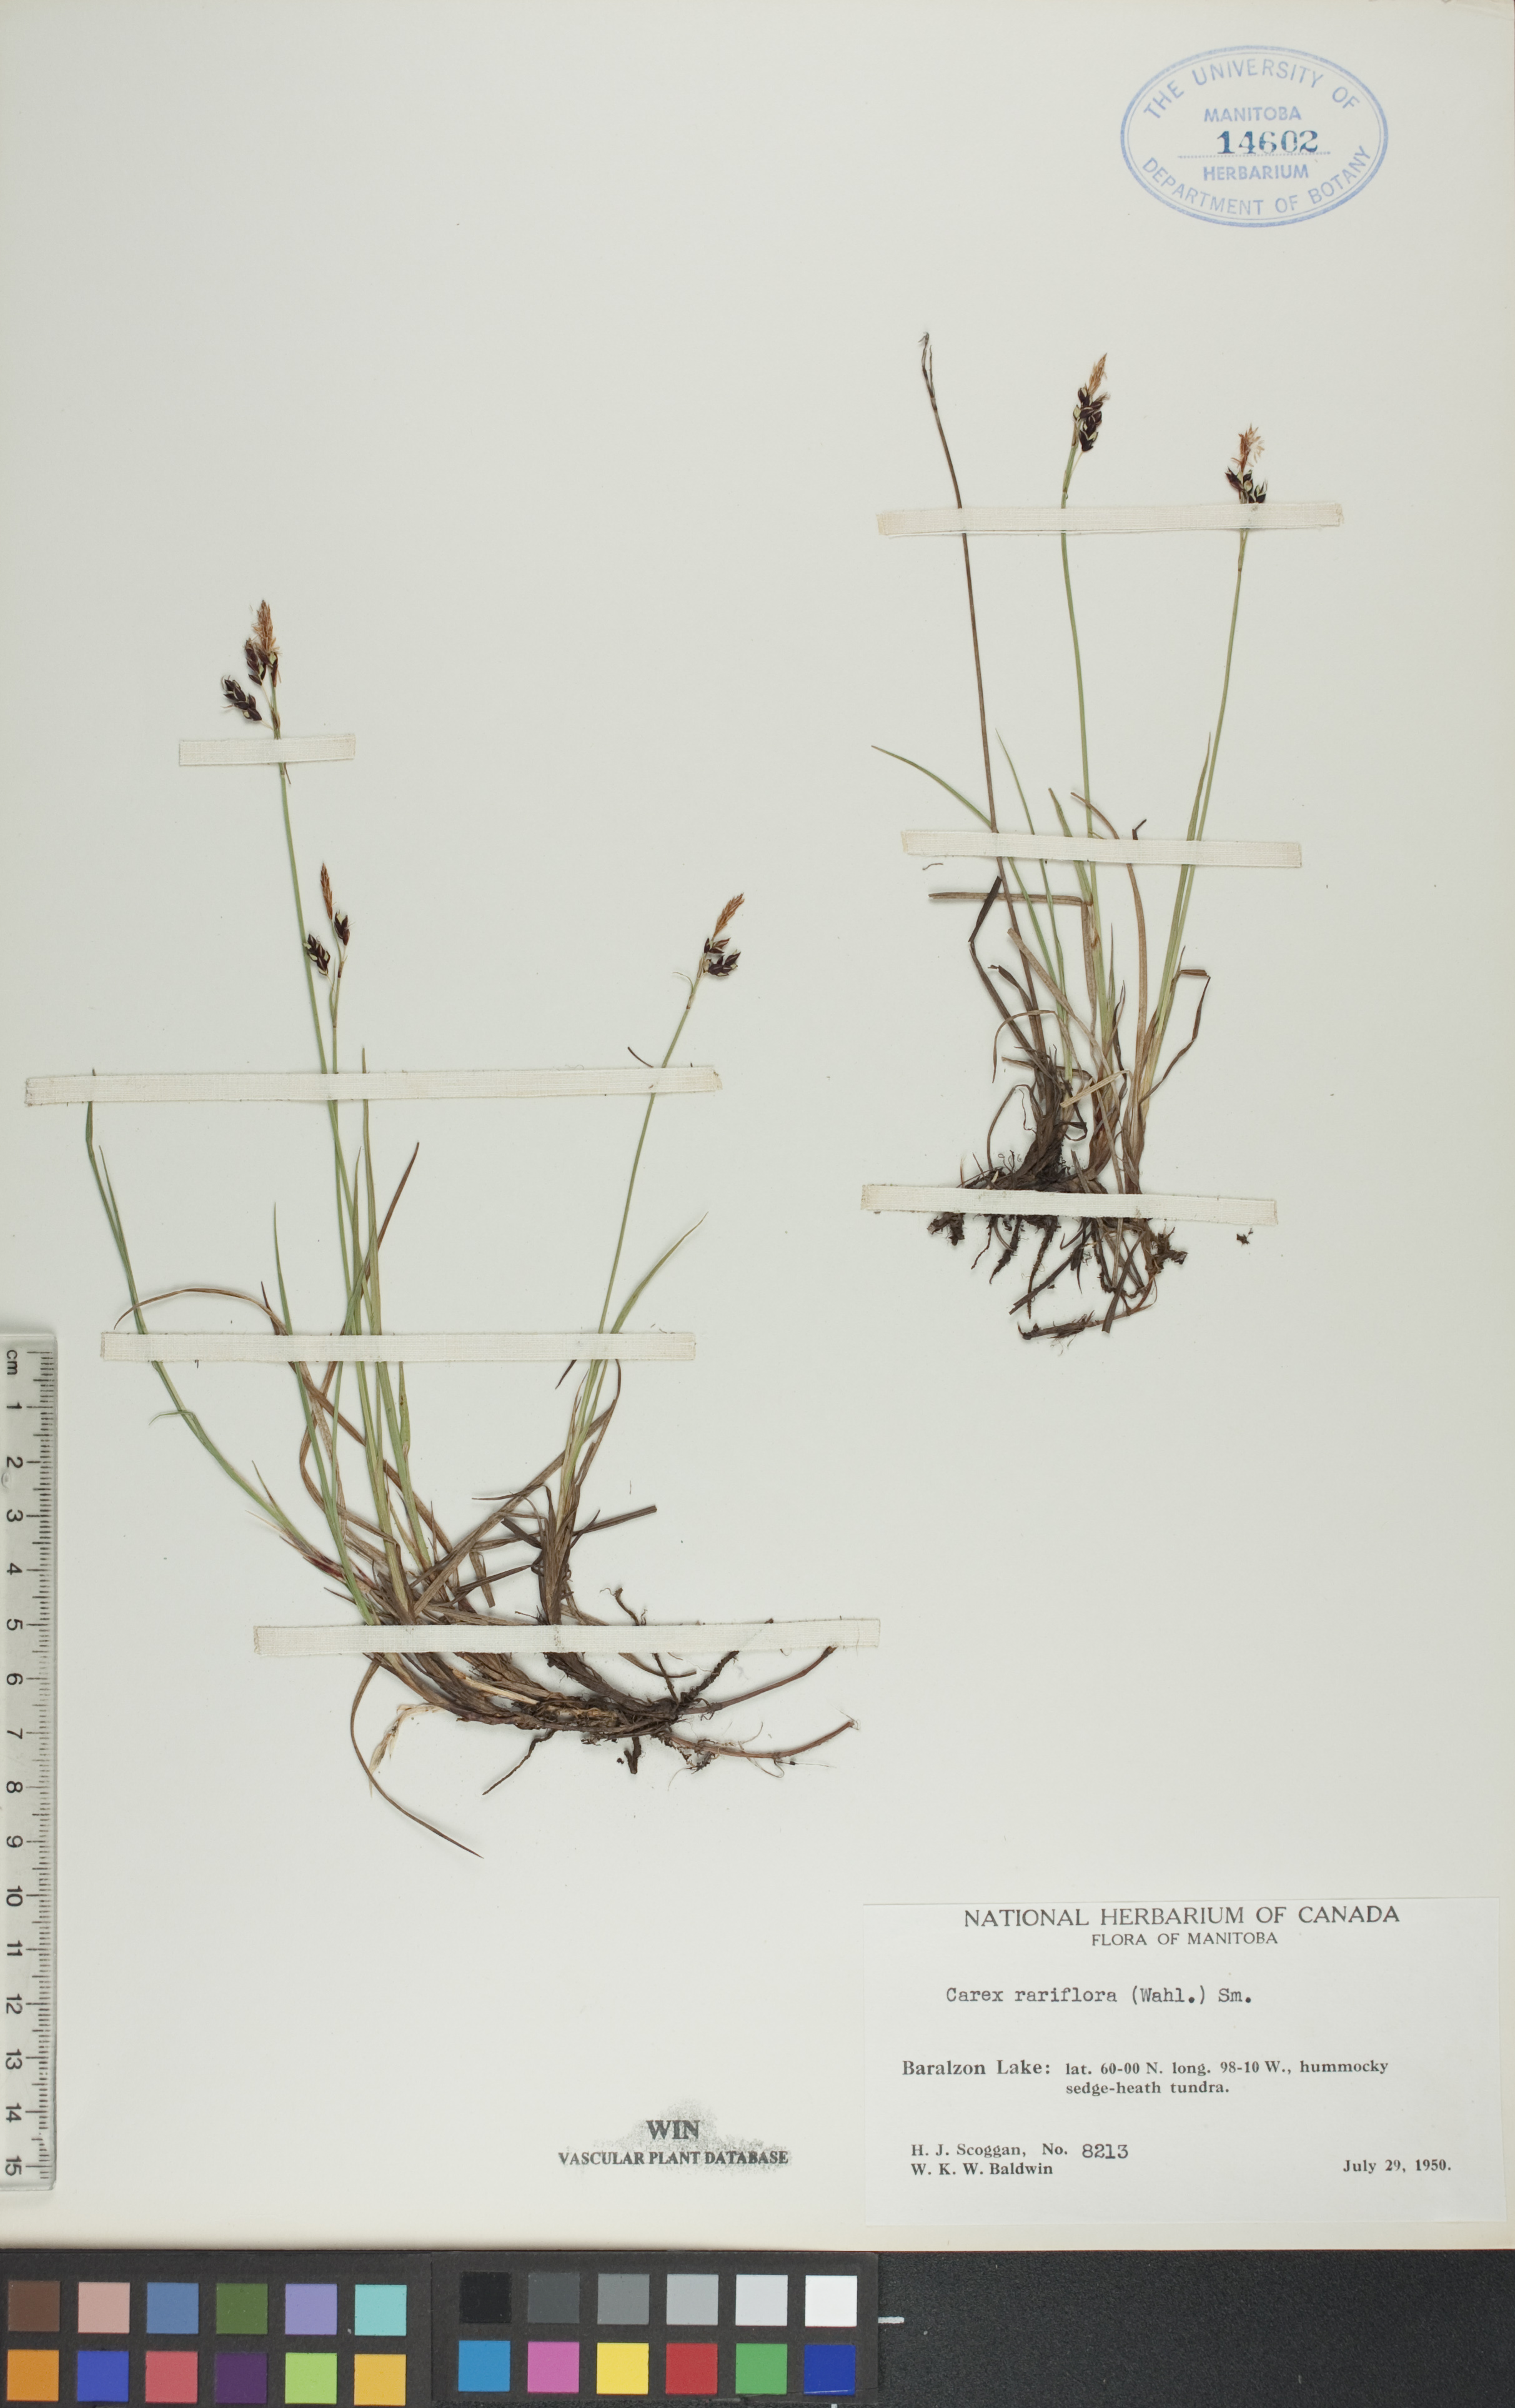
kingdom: Plantae
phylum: Tracheophyta
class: Liliopsida
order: Poales
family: Cyperaceae
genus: Carex
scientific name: Carex rariflora
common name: Loose-flowered alpine sedge
